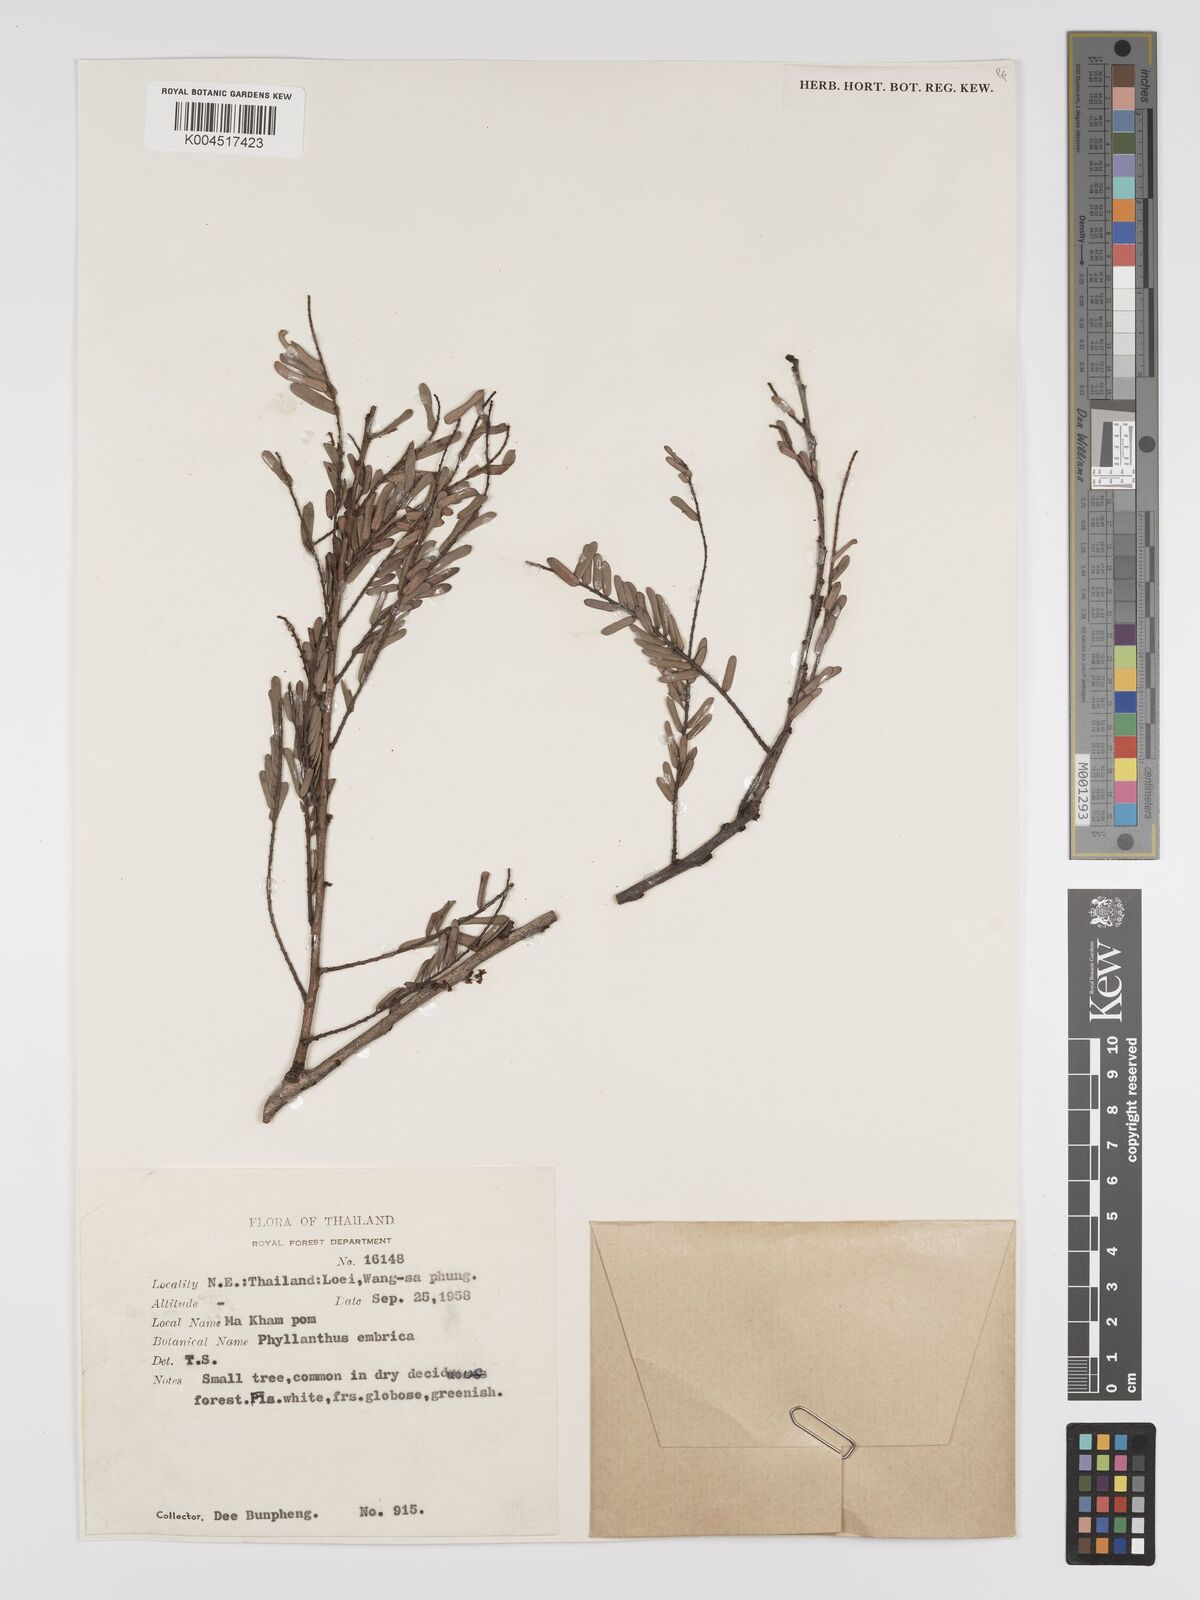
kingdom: Plantae
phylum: Tracheophyta
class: Magnoliopsida
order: Malpighiales
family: Phyllanthaceae
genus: Phyllanthus
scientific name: Phyllanthus emblica
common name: Indian gooseberry
